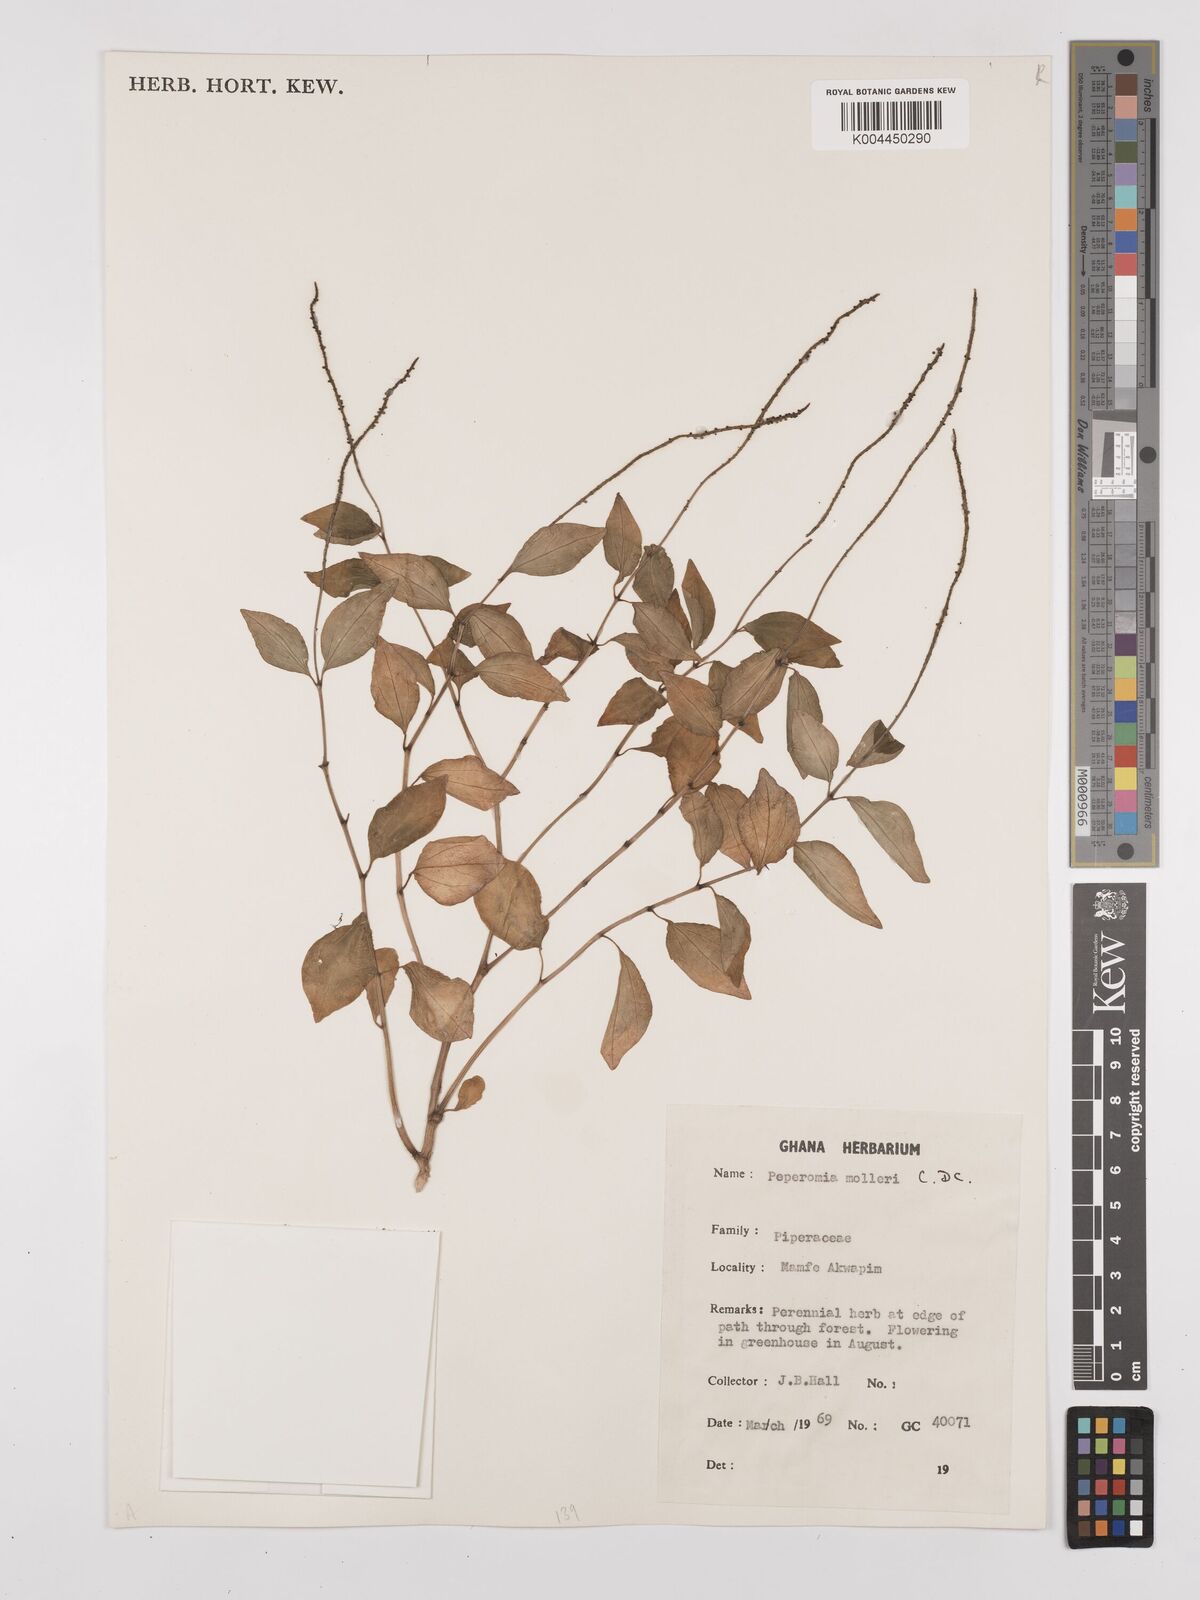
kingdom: Plantae
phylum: Tracheophyta
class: Magnoliopsida
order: Piperales
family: Piperaceae
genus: Peperomia
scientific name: Peperomia molleri
